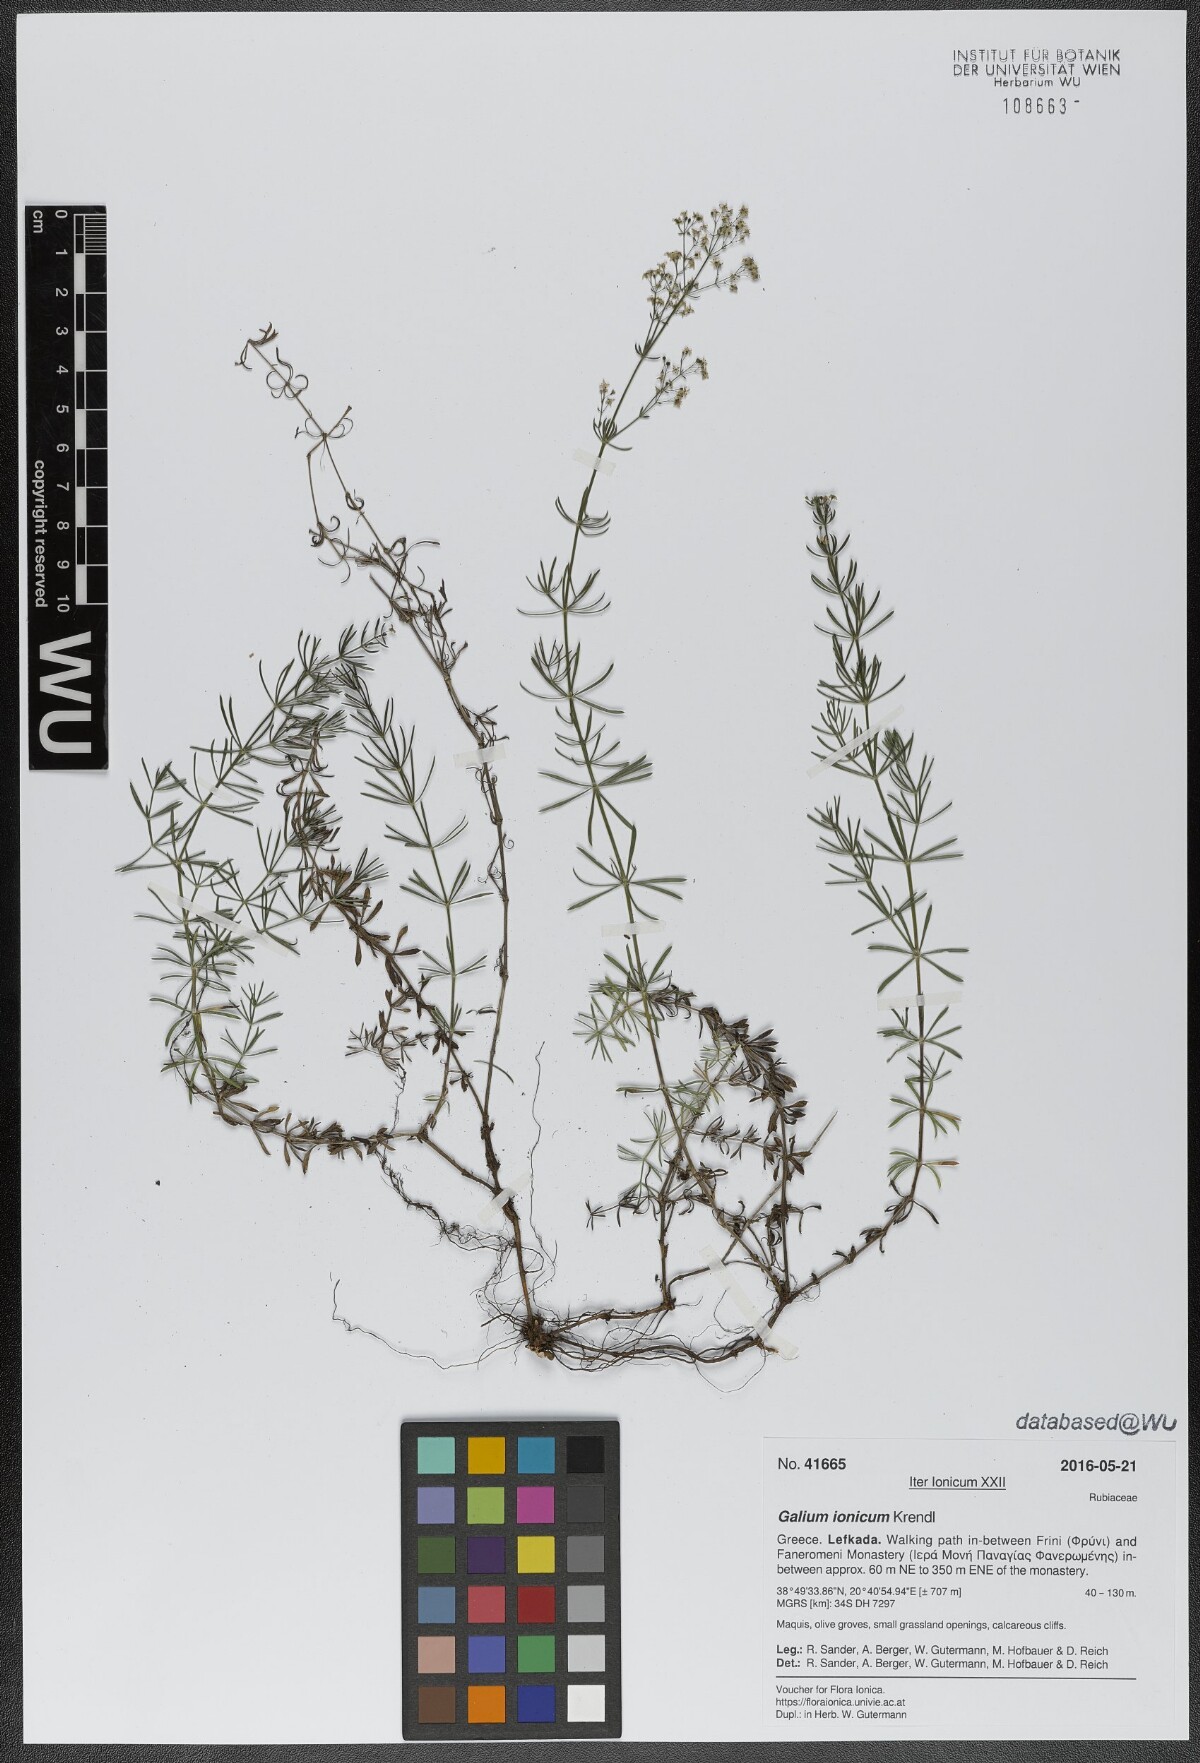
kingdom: Plantae
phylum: Tracheophyta
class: Magnoliopsida
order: Gentianales
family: Rubiaceae
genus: Galium
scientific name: Galium ionicum
